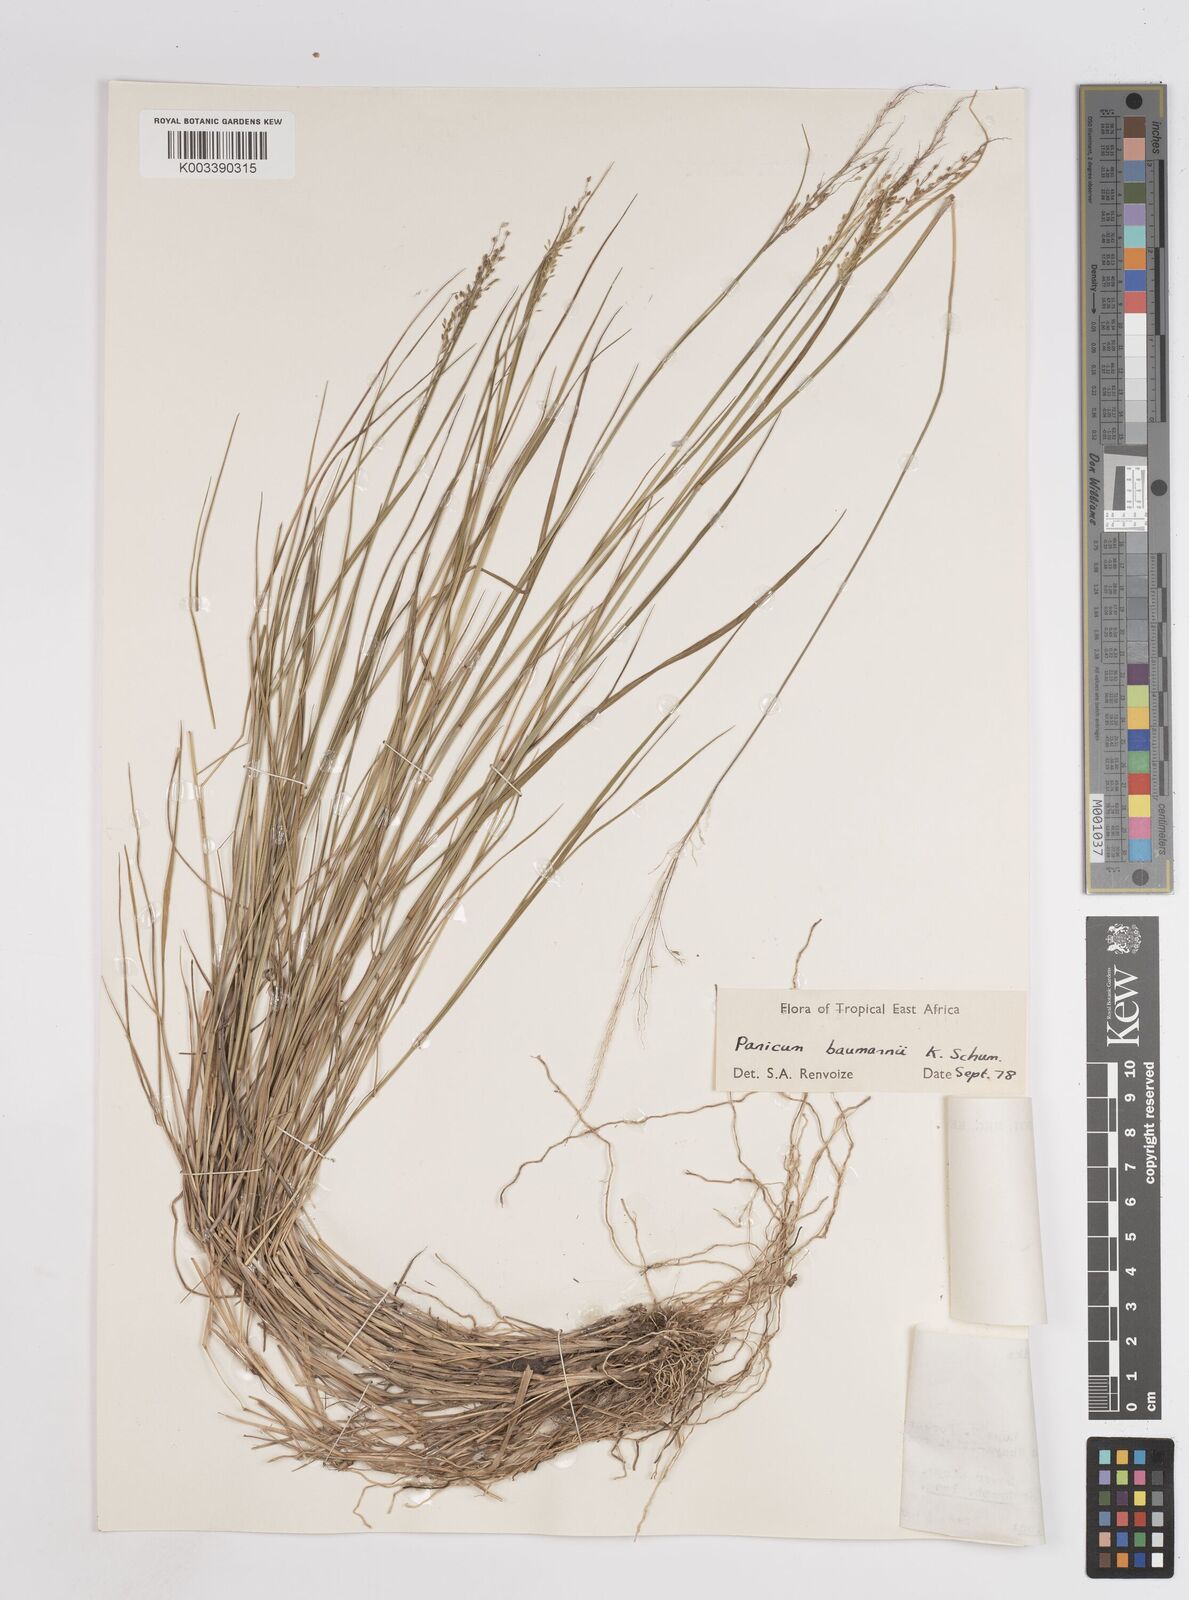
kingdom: Plantae
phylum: Tracheophyta
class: Liliopsida
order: Poales
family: Poaceae
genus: Trichanthecium
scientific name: Trichanthecium nervatum
